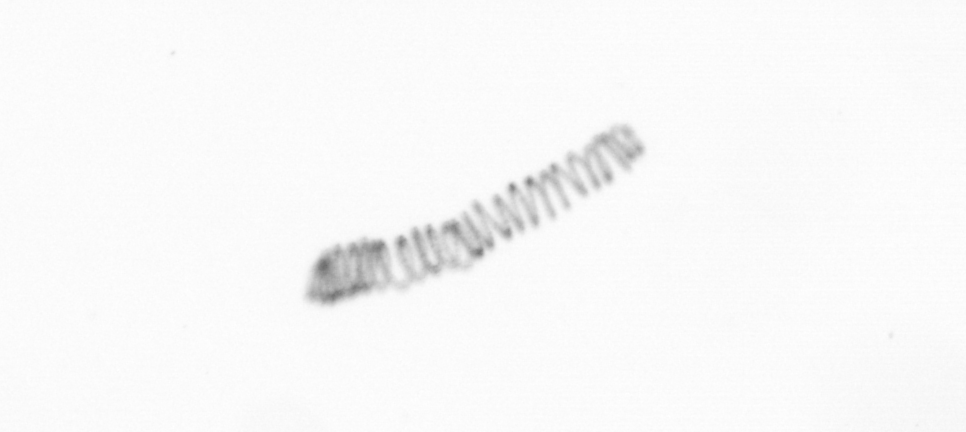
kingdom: Chromista
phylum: Ochrophyta
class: Bacillariophyceae
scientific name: Bacillariophyceae
